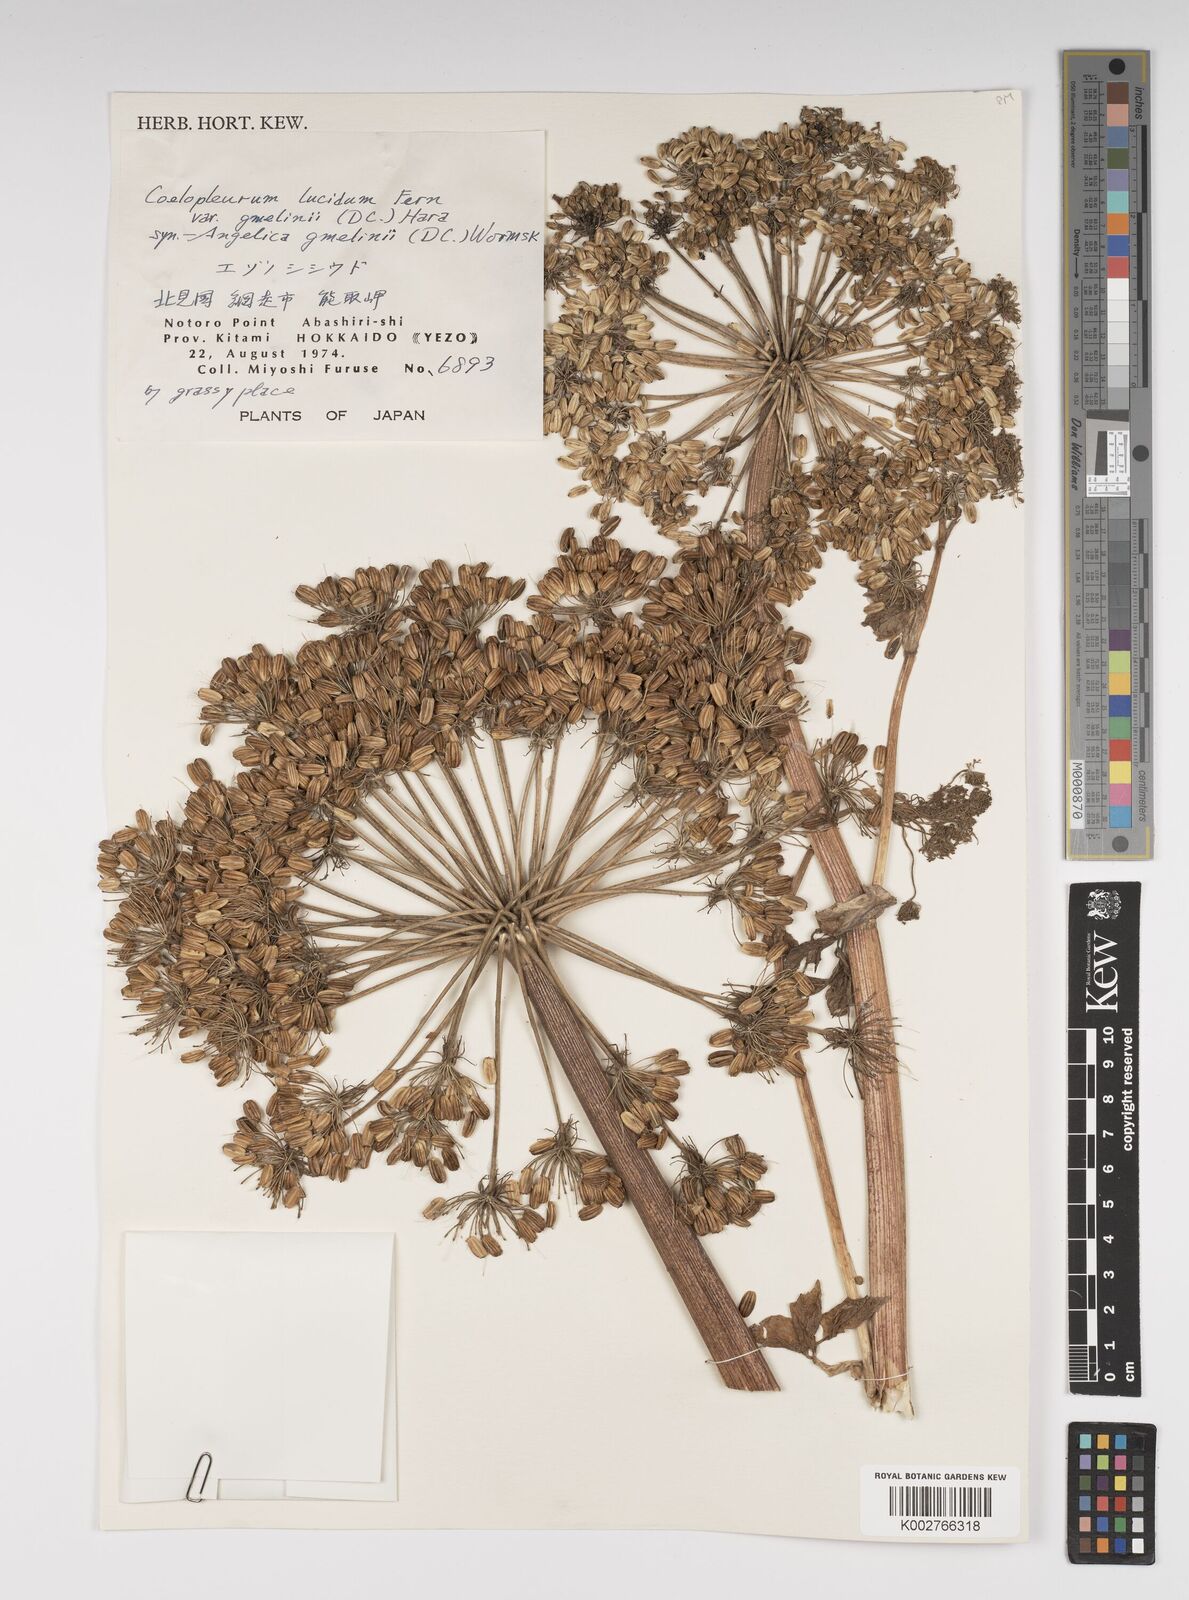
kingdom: Plantae
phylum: Tracheophyta
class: Magnoliopsida
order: Apiales
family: Apiaceae
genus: Angelica
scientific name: Angelica gmelinii
